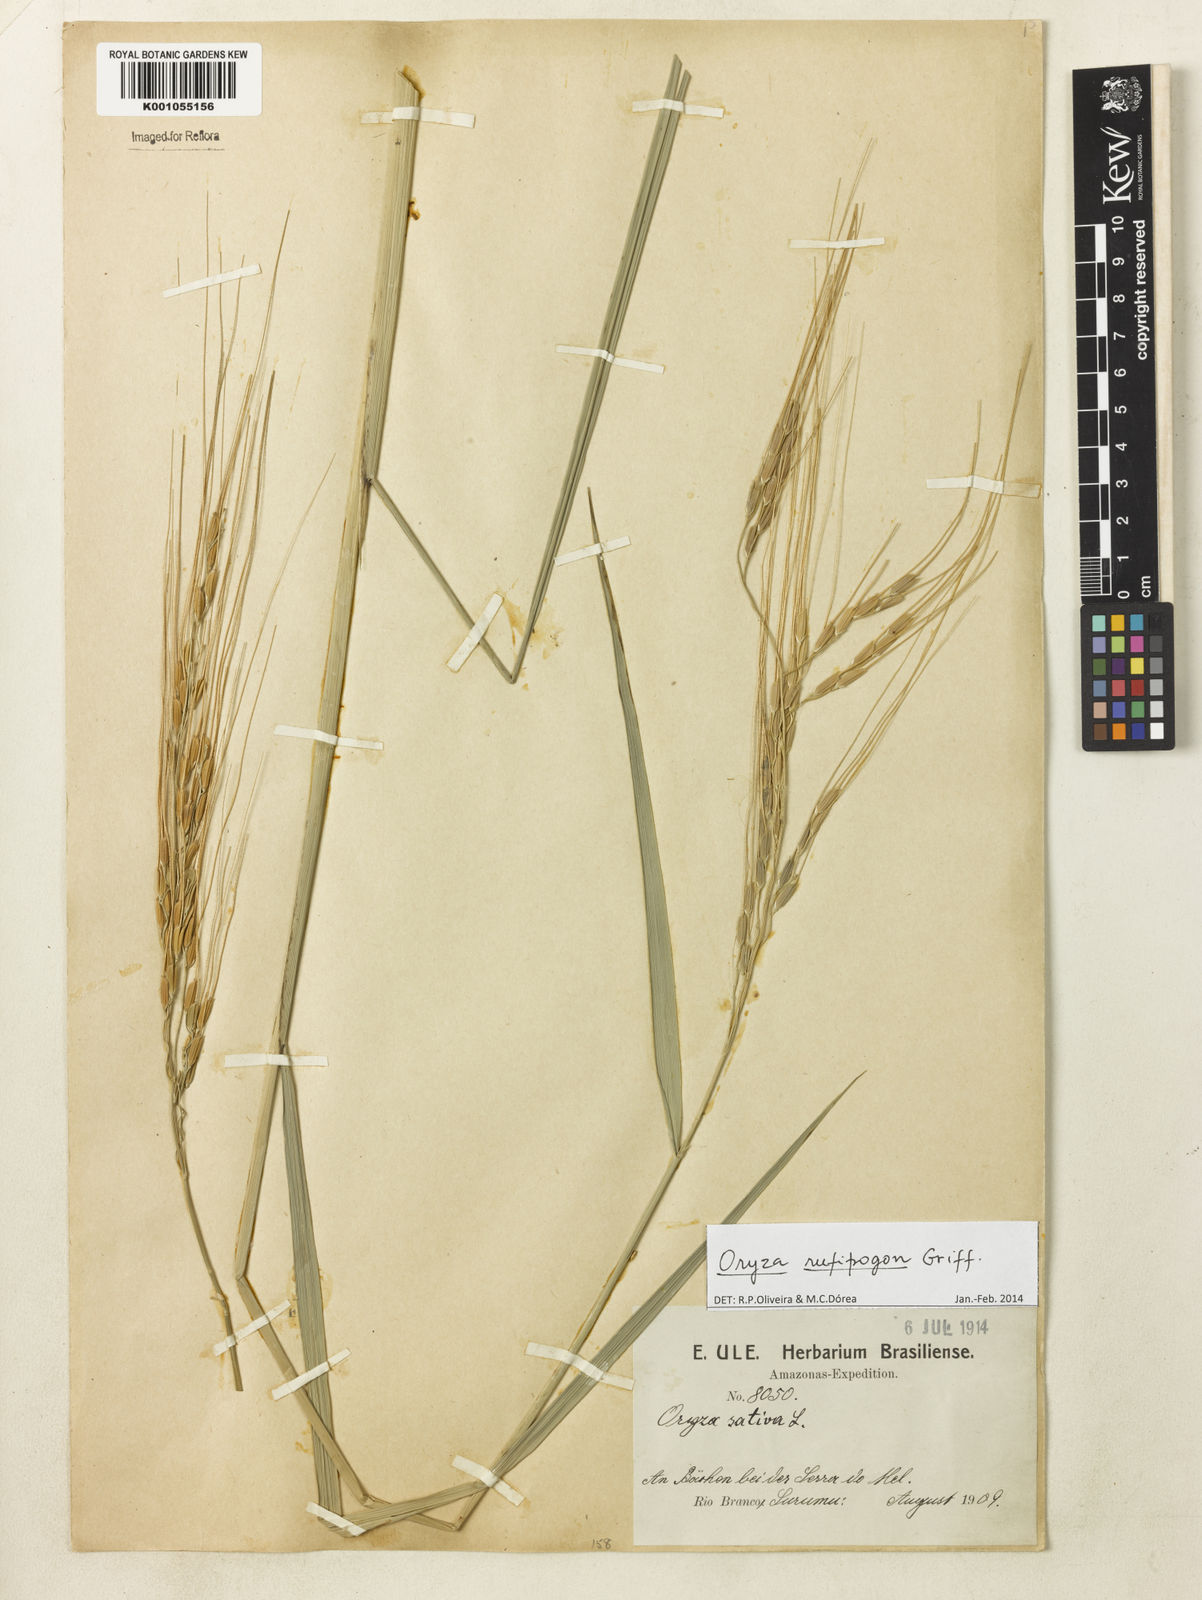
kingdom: Plantae
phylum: Tracheophyta
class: Liliopsida
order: Poales
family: Poaceae
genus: Oryza
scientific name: Oryza rufipogon
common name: Red rice
